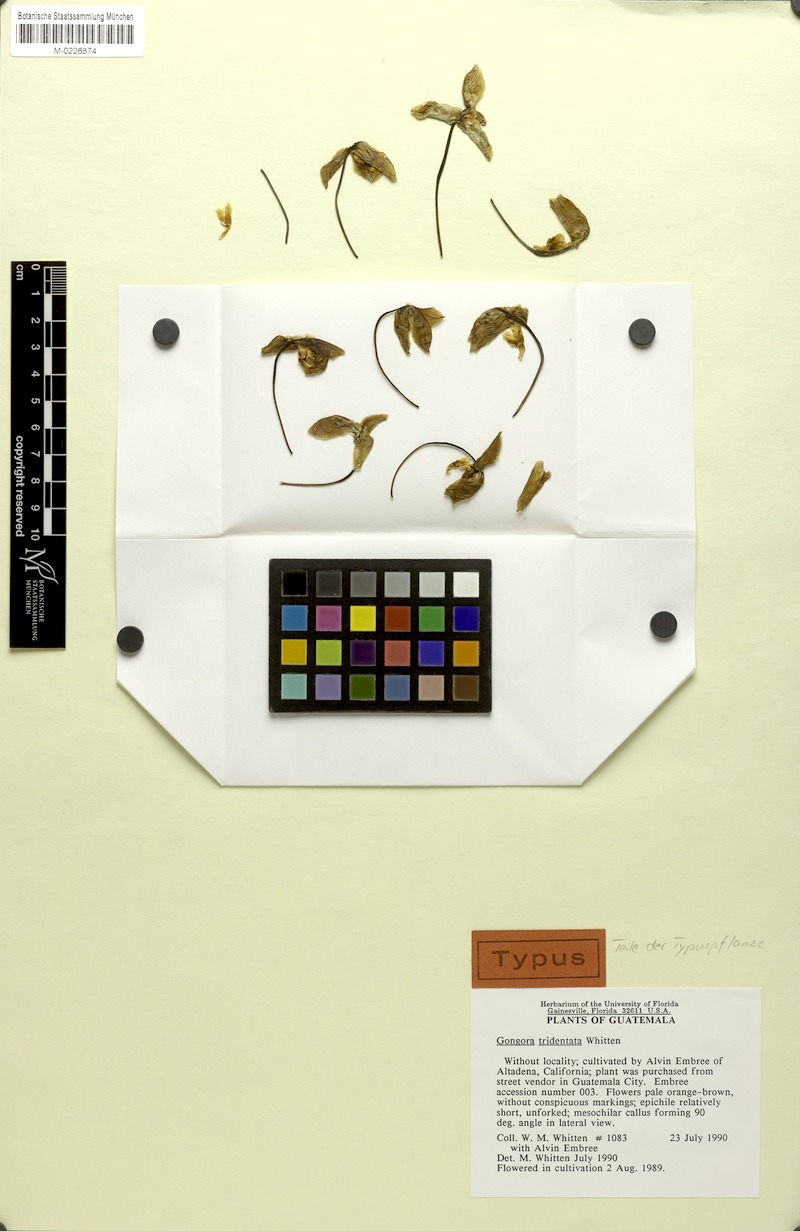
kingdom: Plantae
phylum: Tracheophyta
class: Liliopsida
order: Asparagales
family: Orchidaceae
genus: Gongora
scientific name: Gongora tridentata
